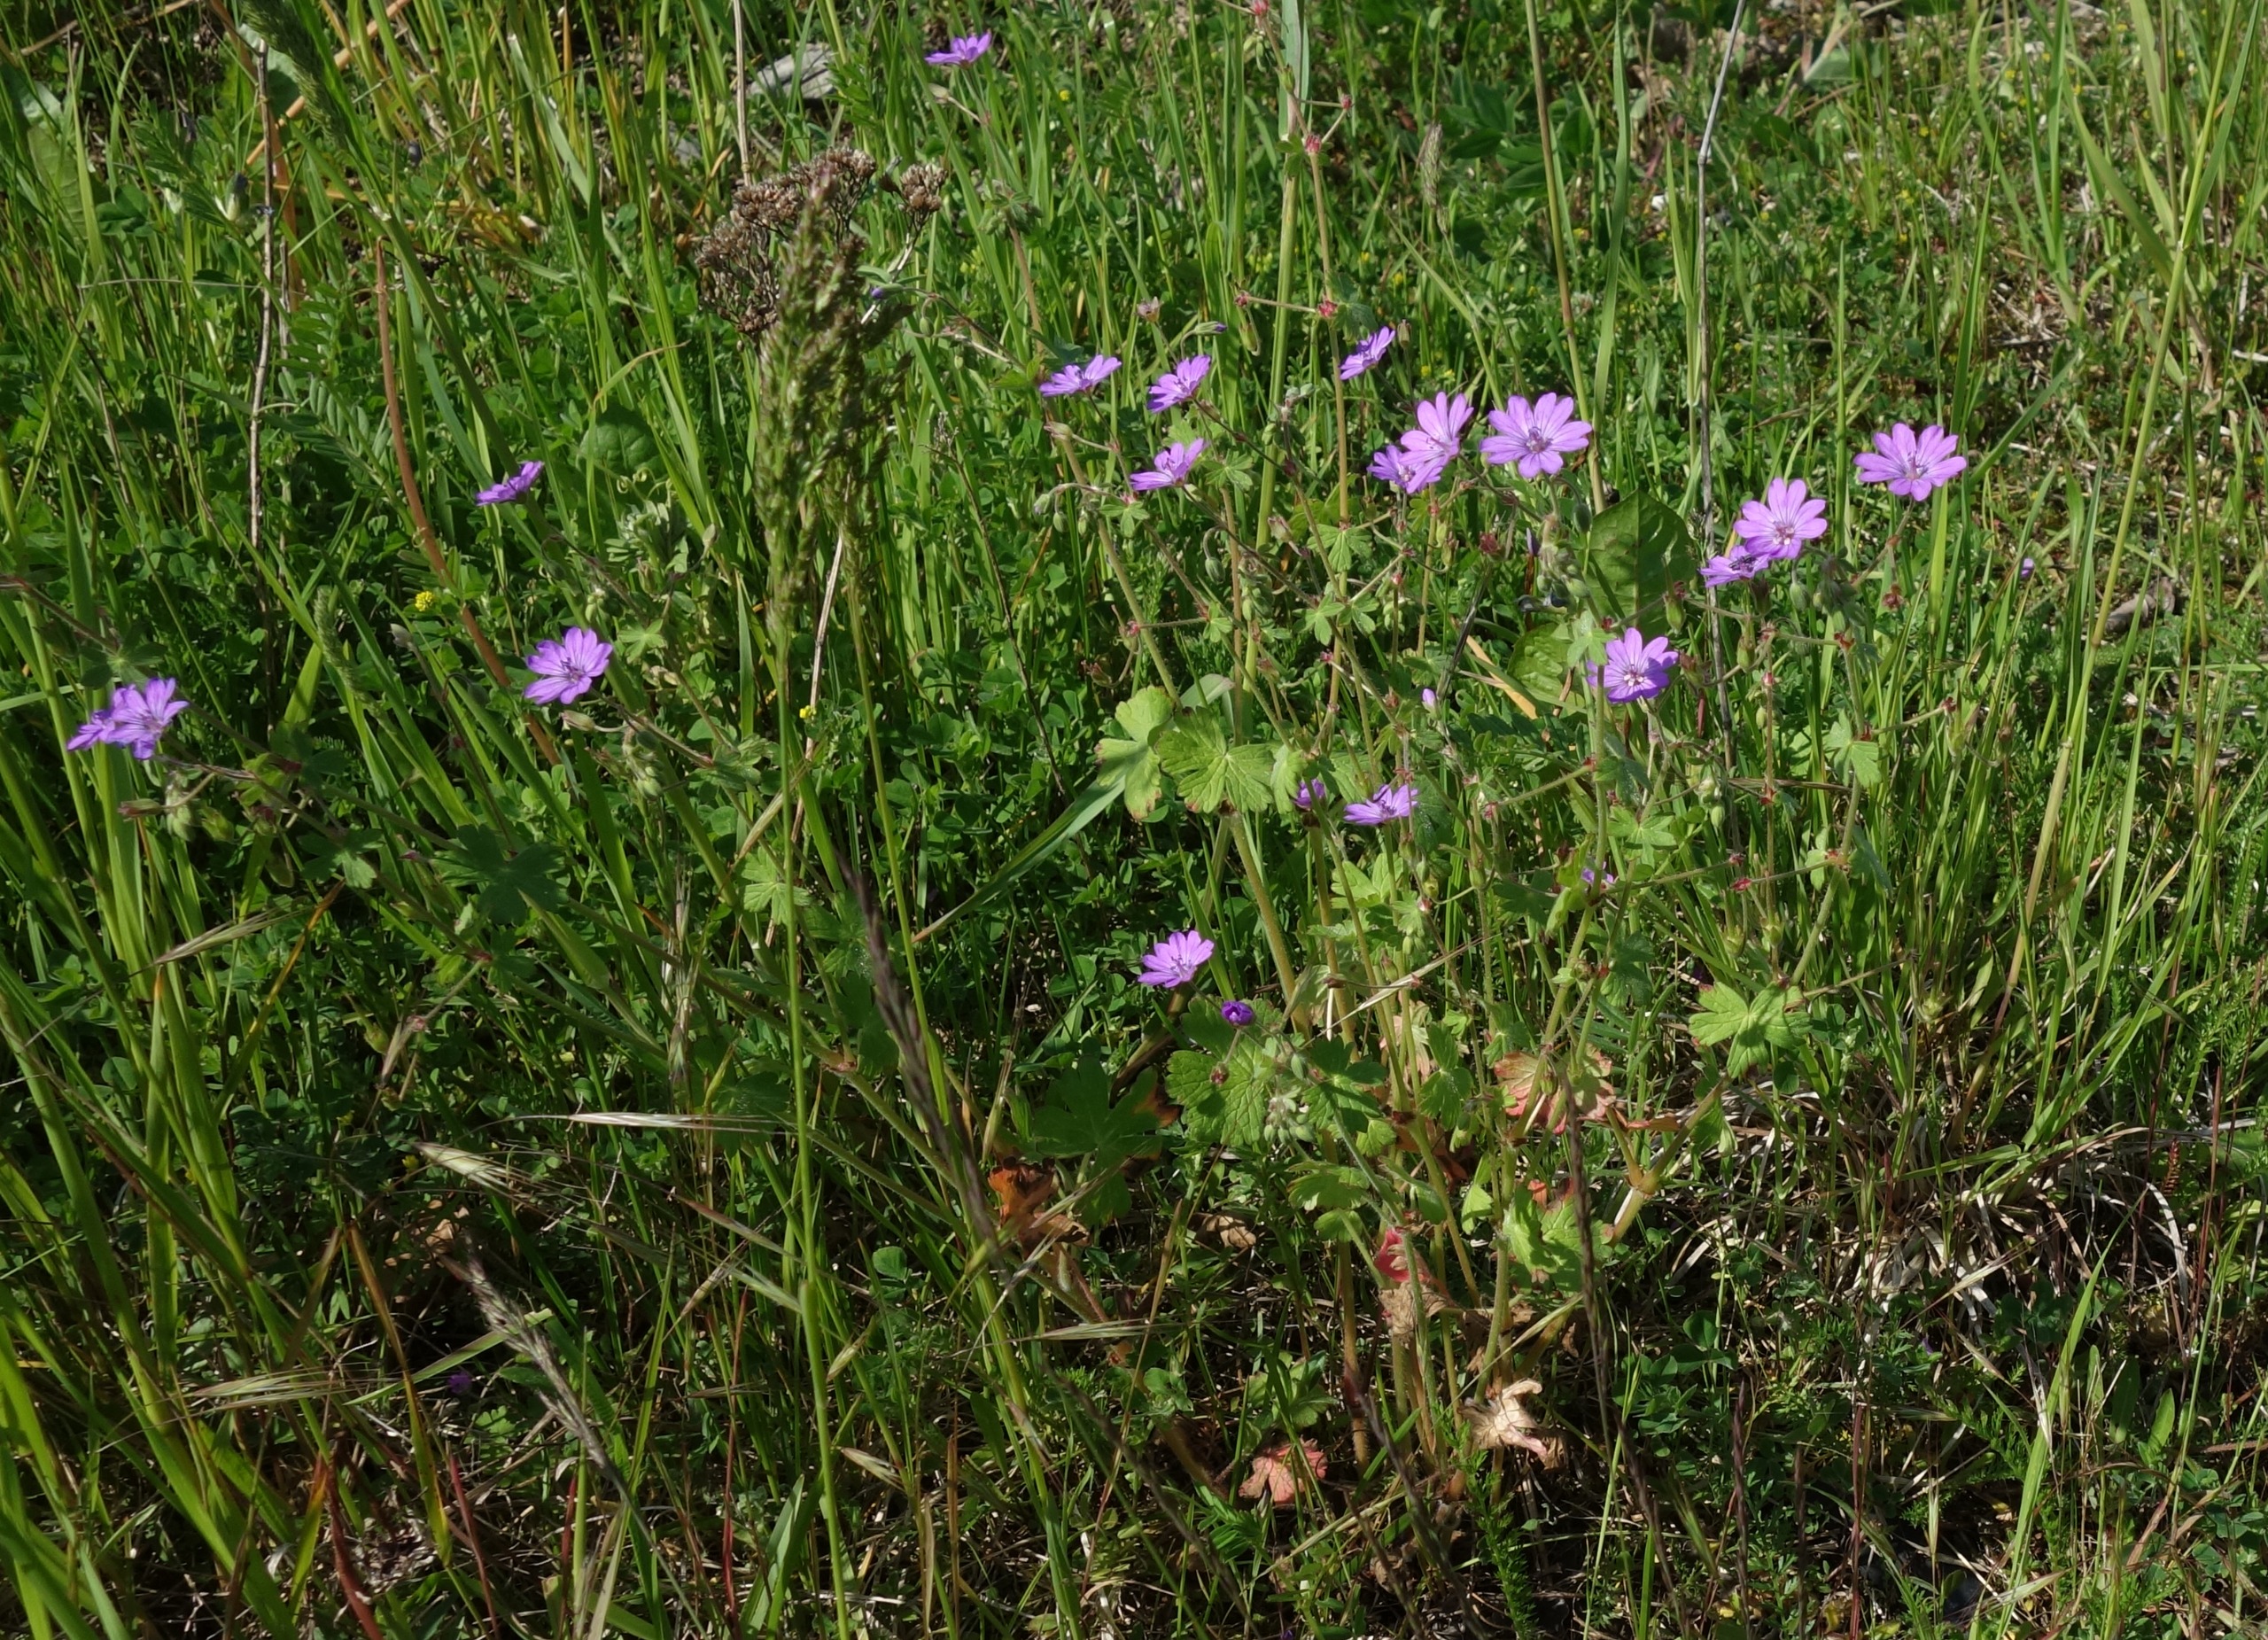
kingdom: Plantae
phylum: Tracheophyta
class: Magnoliopsida
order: Geraniales
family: Geraniaceae
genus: Geranium
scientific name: Geranium pyrenaicum
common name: Pyrenæisk storkenæb
